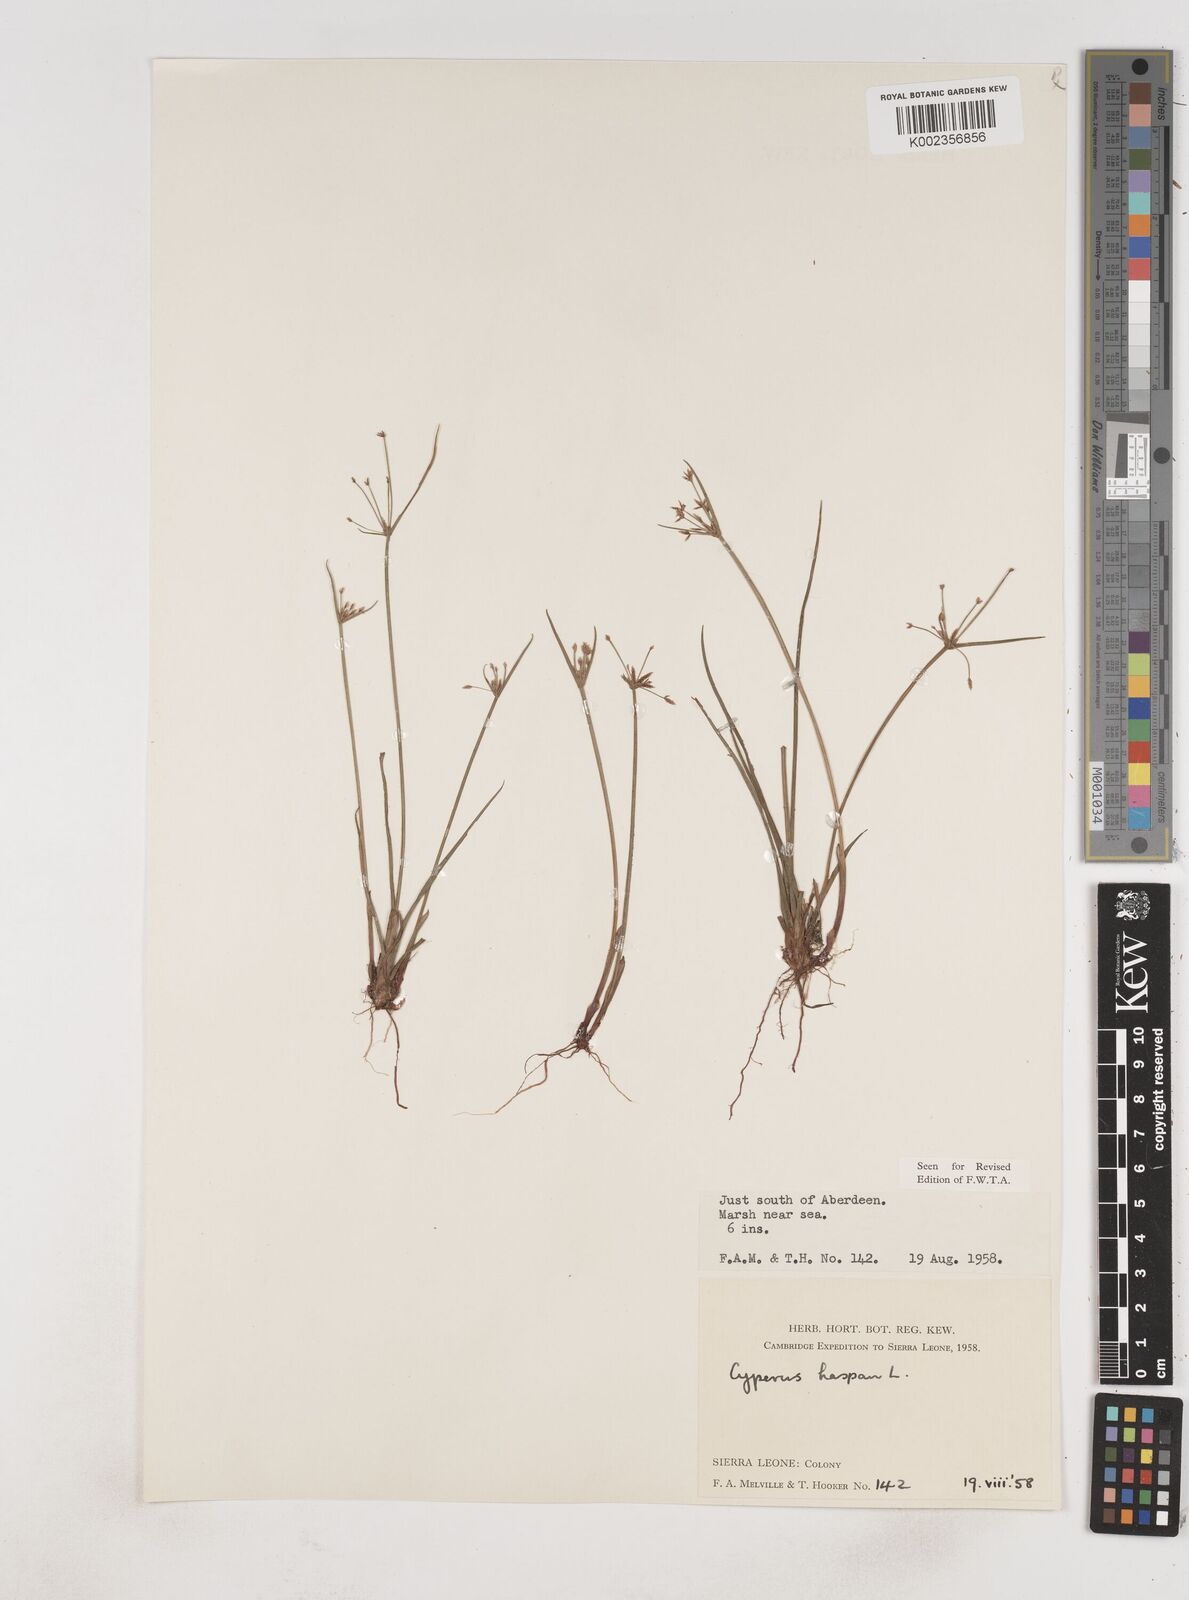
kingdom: Plantae
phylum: Tracheophyta
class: Liliopsida
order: Poales
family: Cyperaceae
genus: Cyperus
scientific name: Cyperus haspan
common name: Haspan flatsedge
